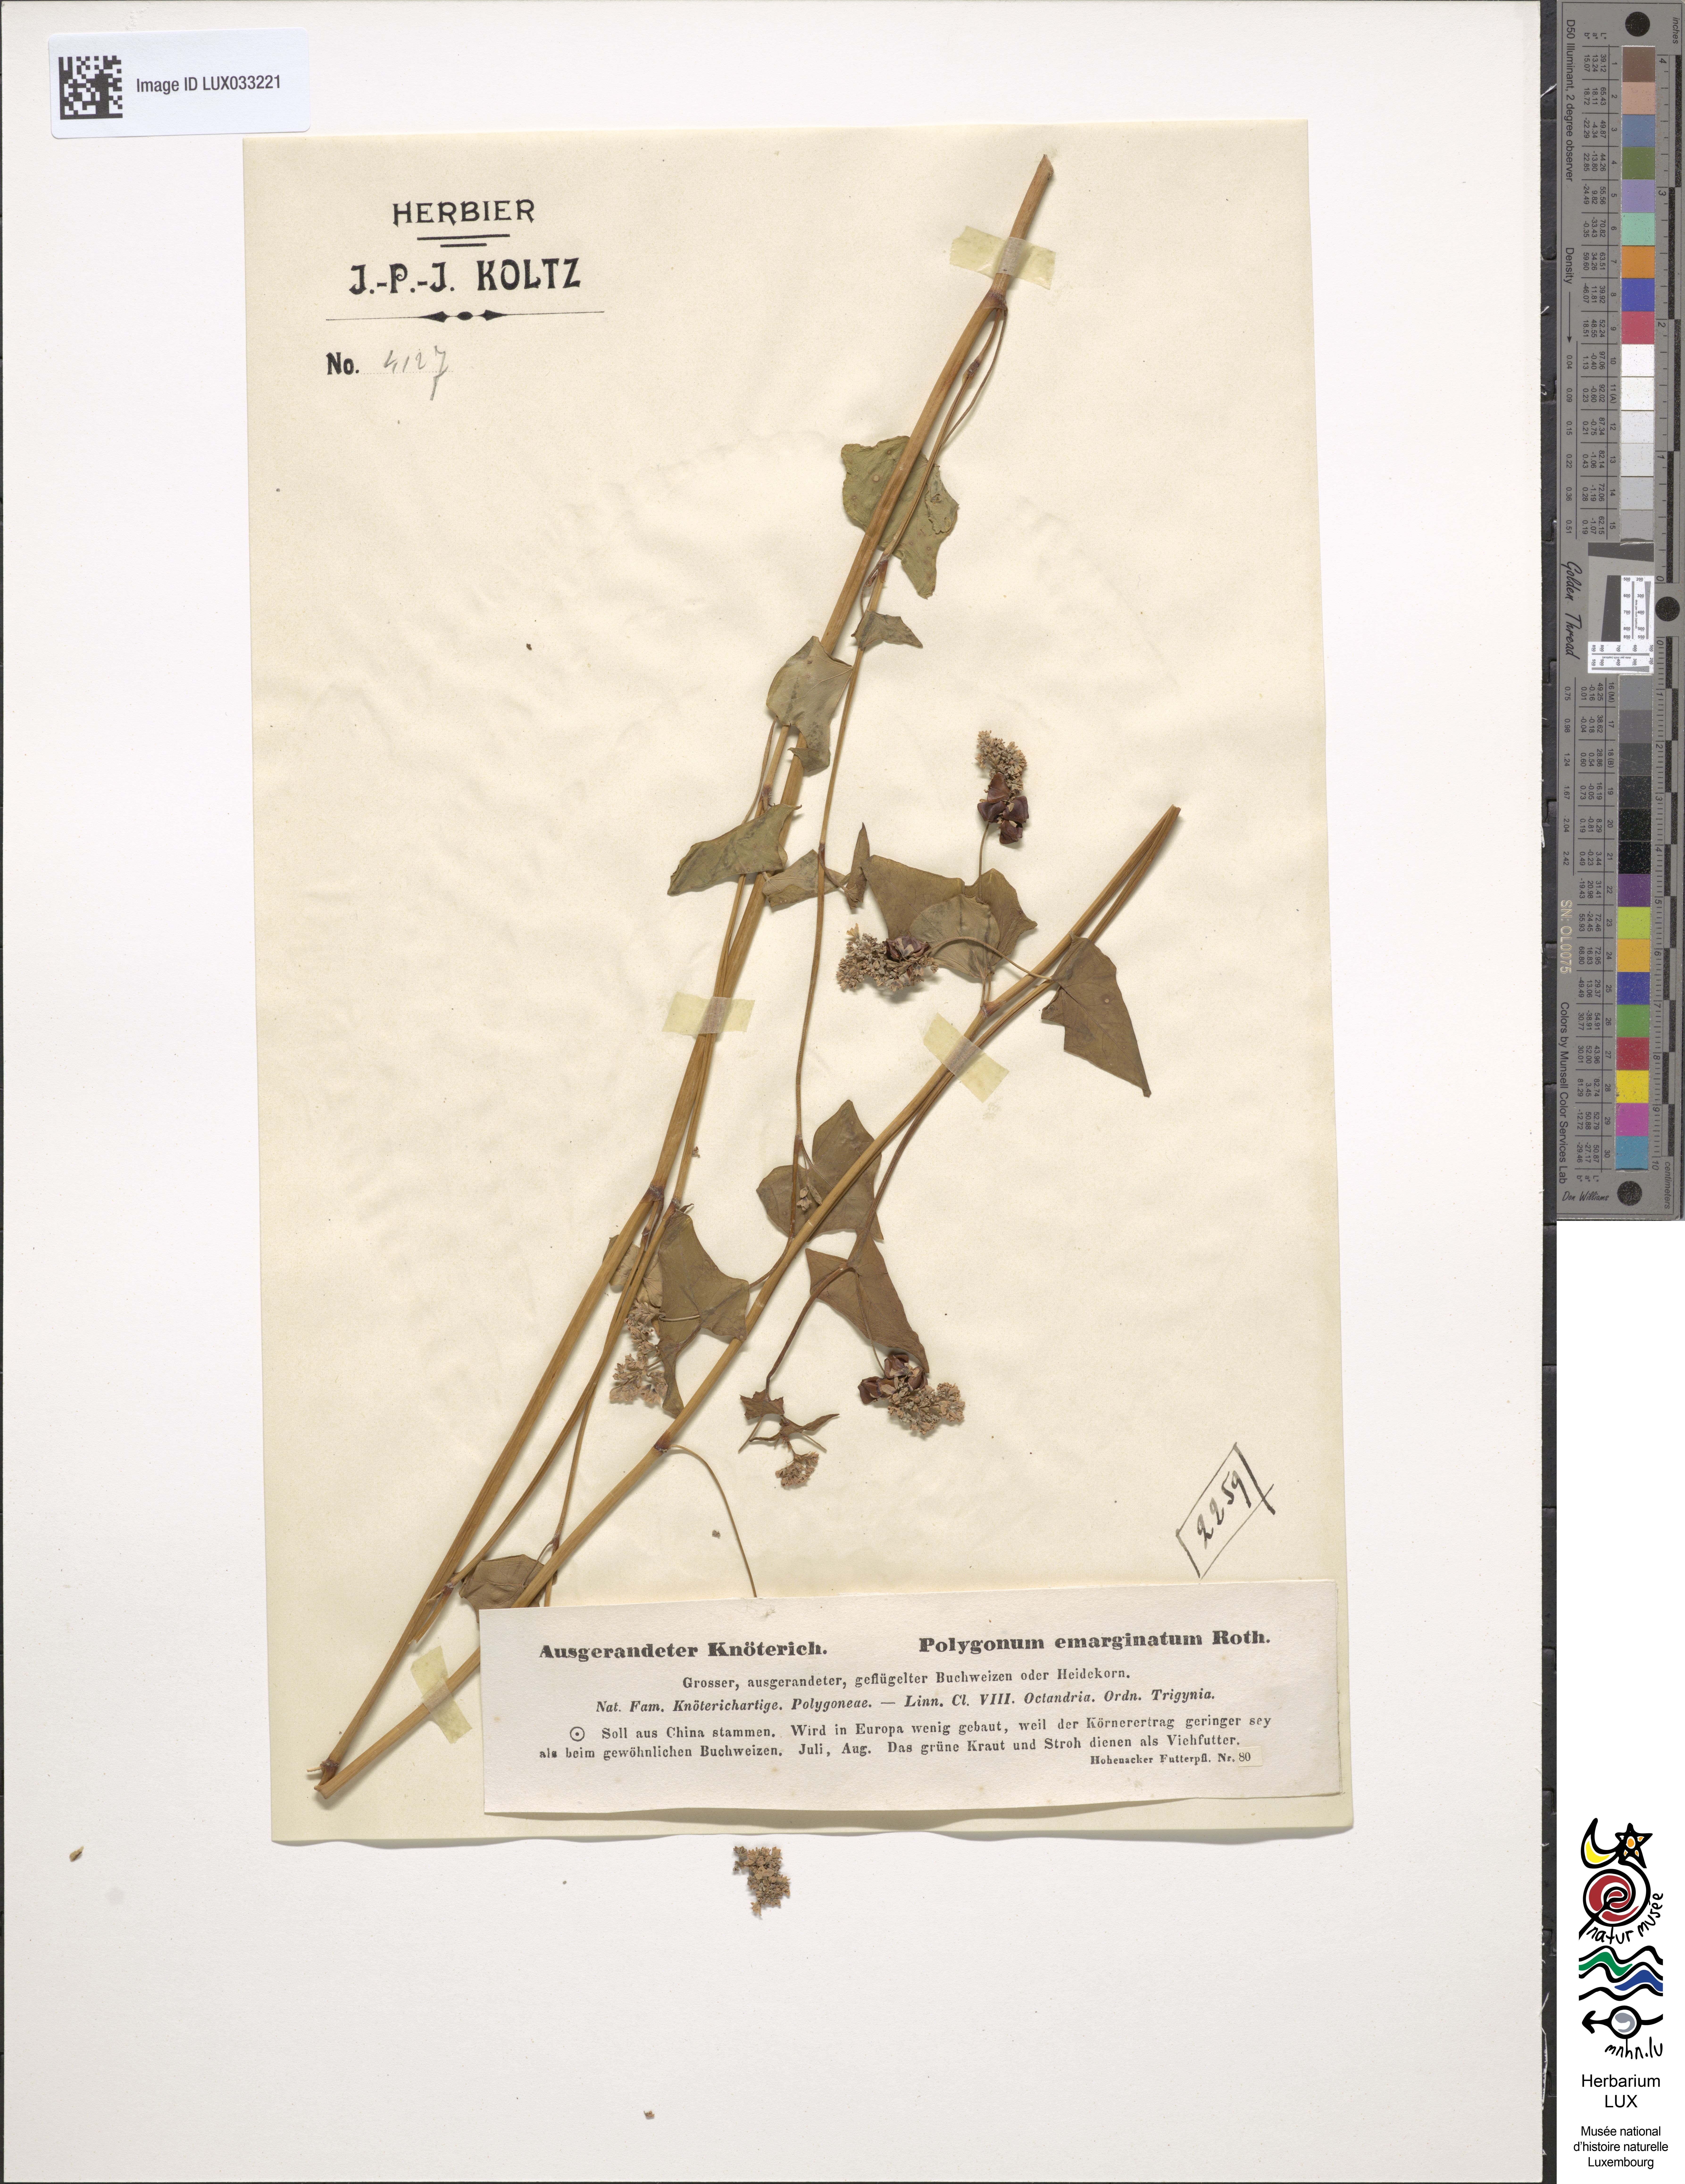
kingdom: Plantae
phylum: Tracheophyta
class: Magnoliopsida
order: Caryophyllales
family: Polygonaceae
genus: Fagopyrum
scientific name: Fagopyrum esculentum
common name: Buckwheat
